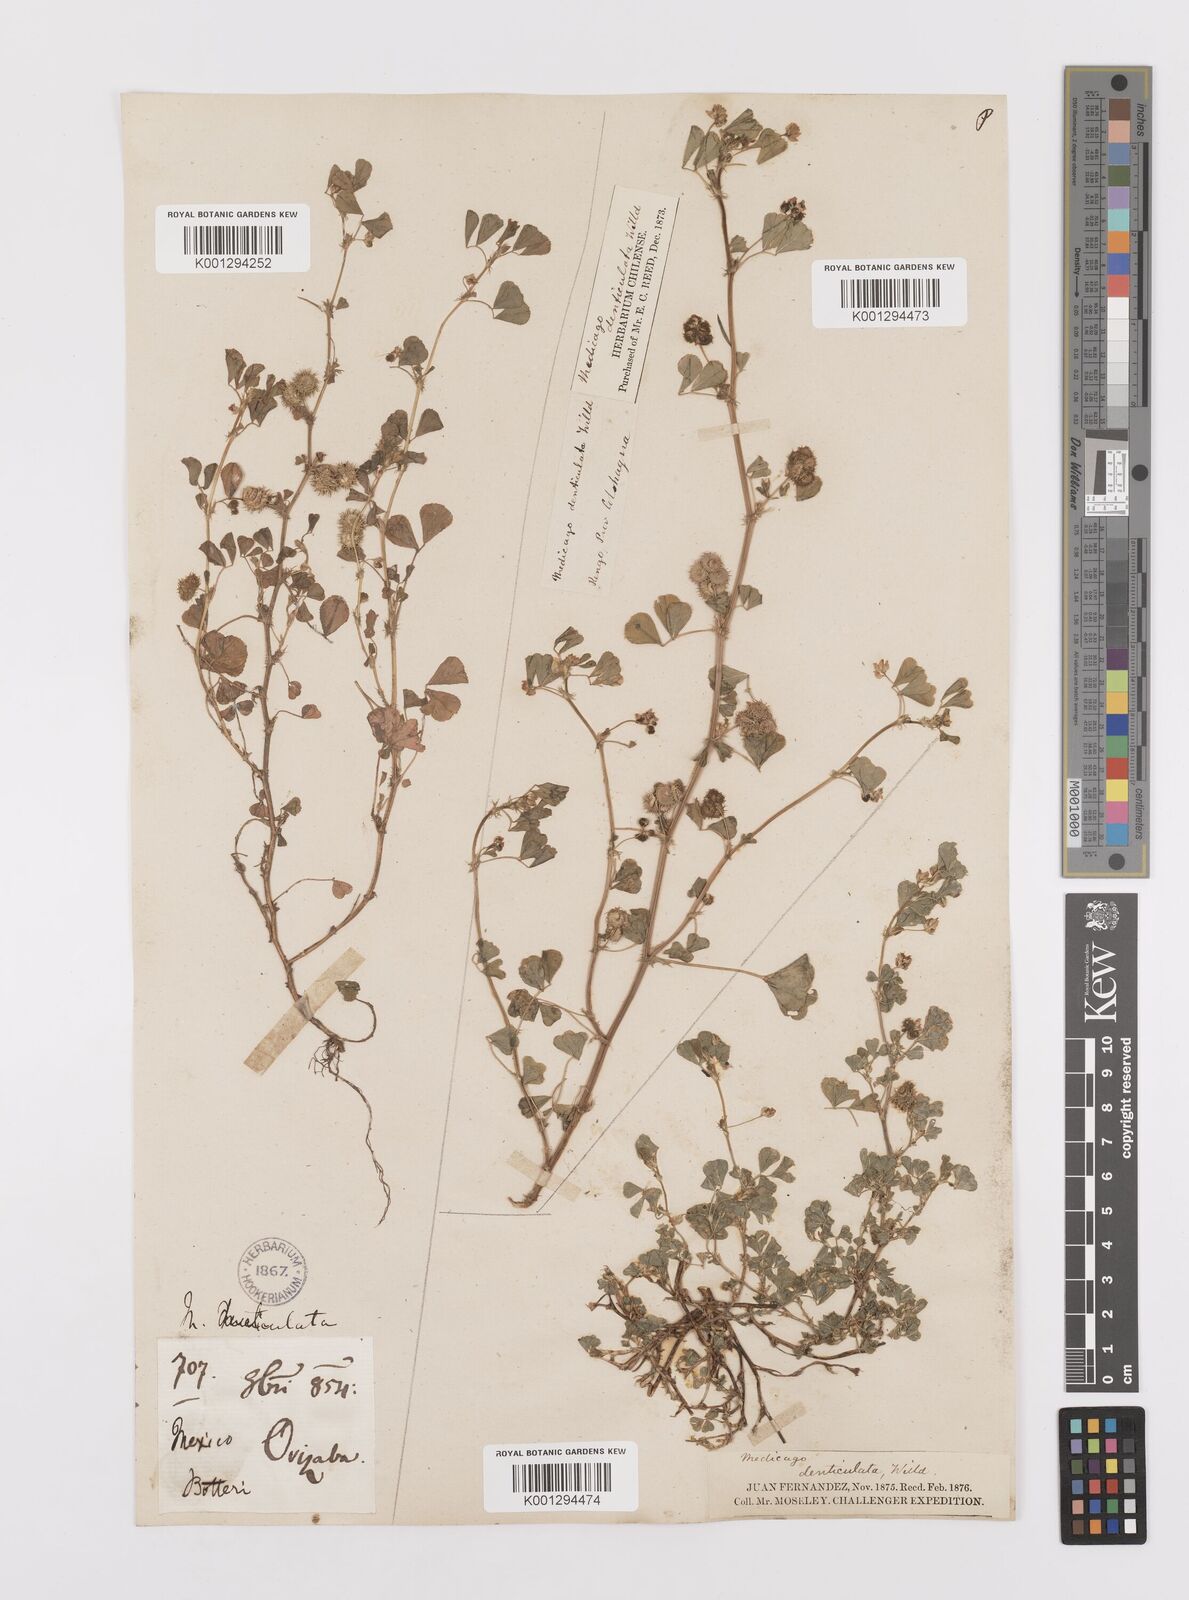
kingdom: Plantae
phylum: Tracheophyta
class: Magnoliopsida
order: Fabales
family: Fabaceae
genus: Medicago
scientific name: Medicago polymorpha
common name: Burclover
